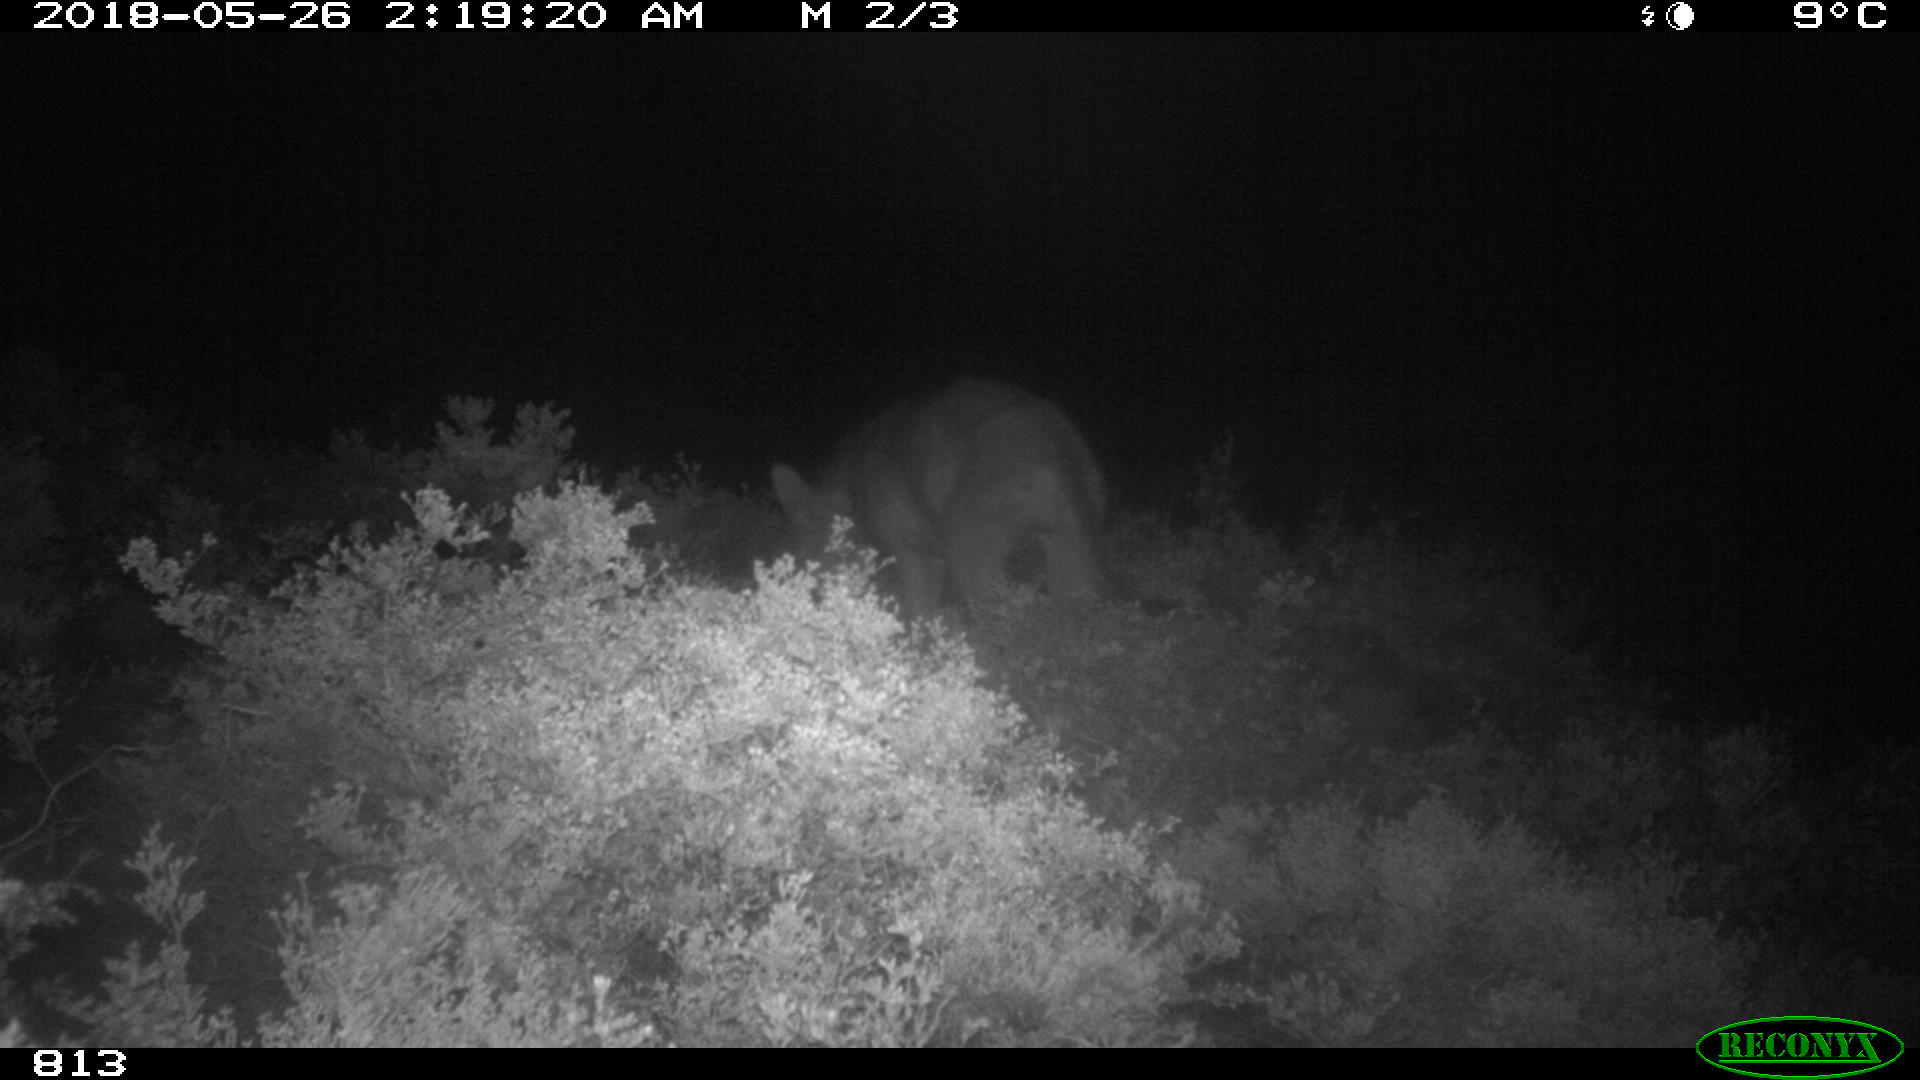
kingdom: Animalia
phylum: Chordata
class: Mammalia
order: Carnivora
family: Canidae
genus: Canis
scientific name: Canis lupus
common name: Gray wolf
